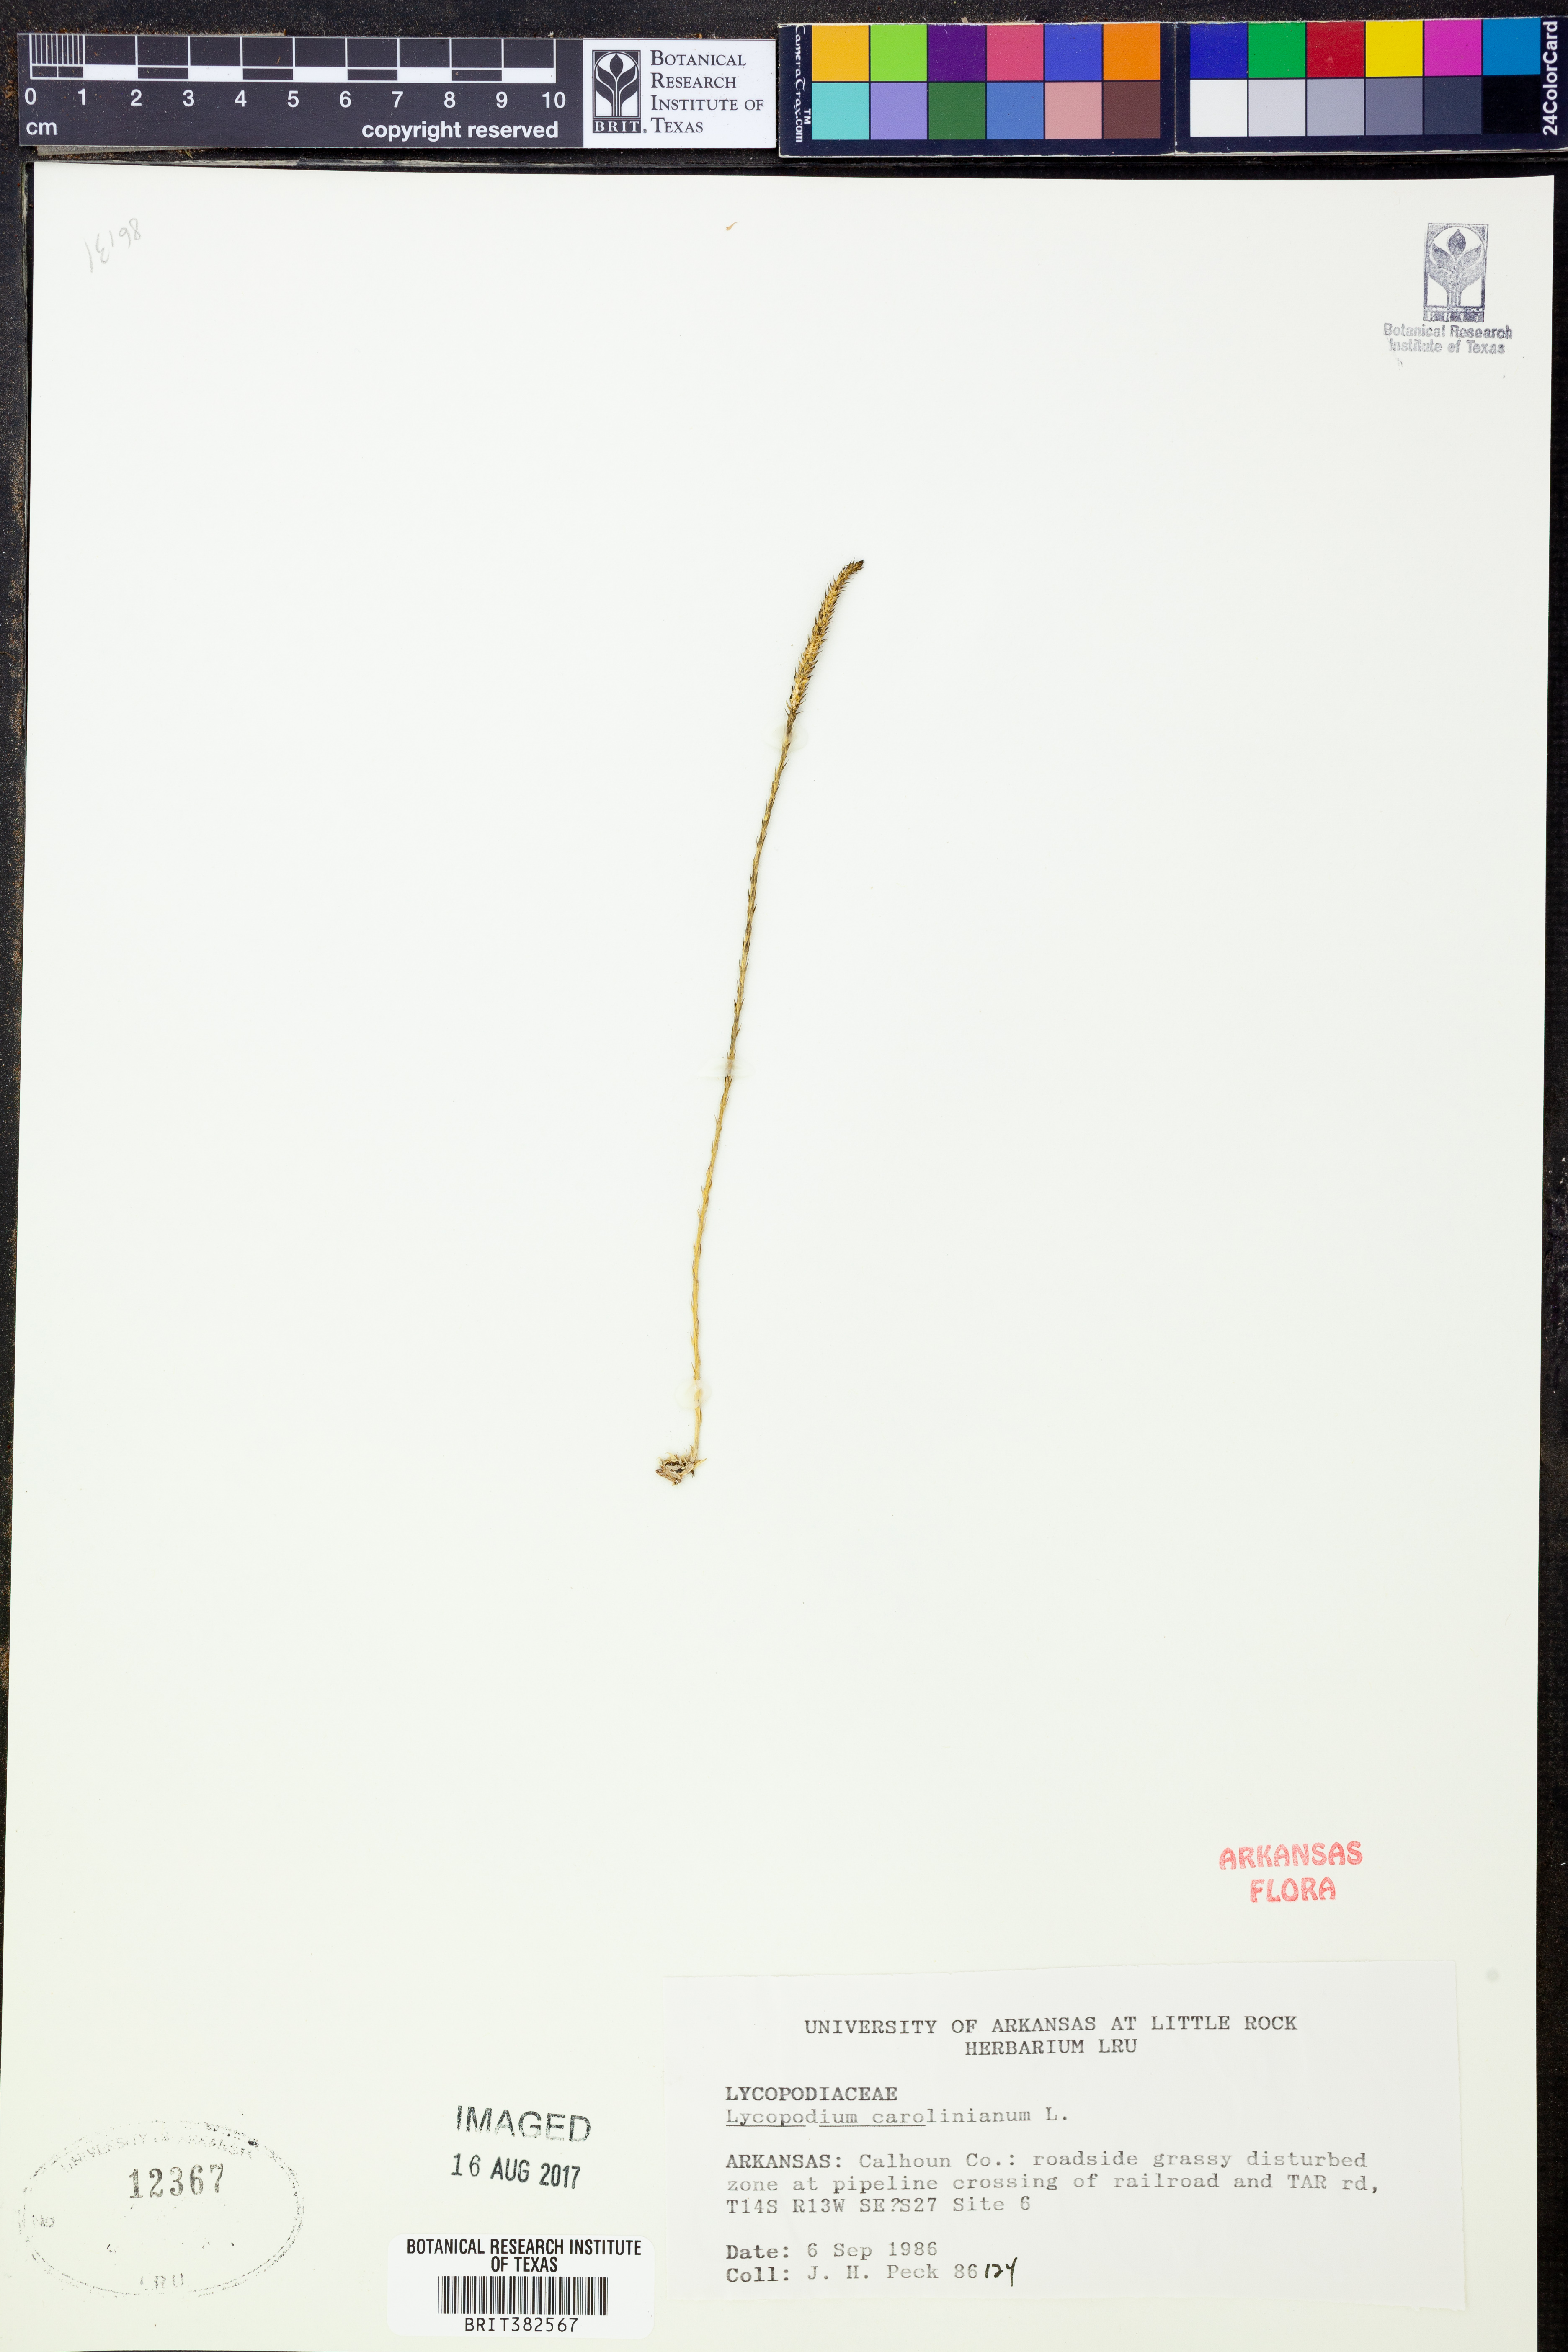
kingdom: Plantae
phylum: Tracheophyta
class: Lycopodiopsida
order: Lycopodiales
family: Lycopodiaceae
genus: Pseudolycopodiella
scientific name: Pseudolycopodiella caroliniana
